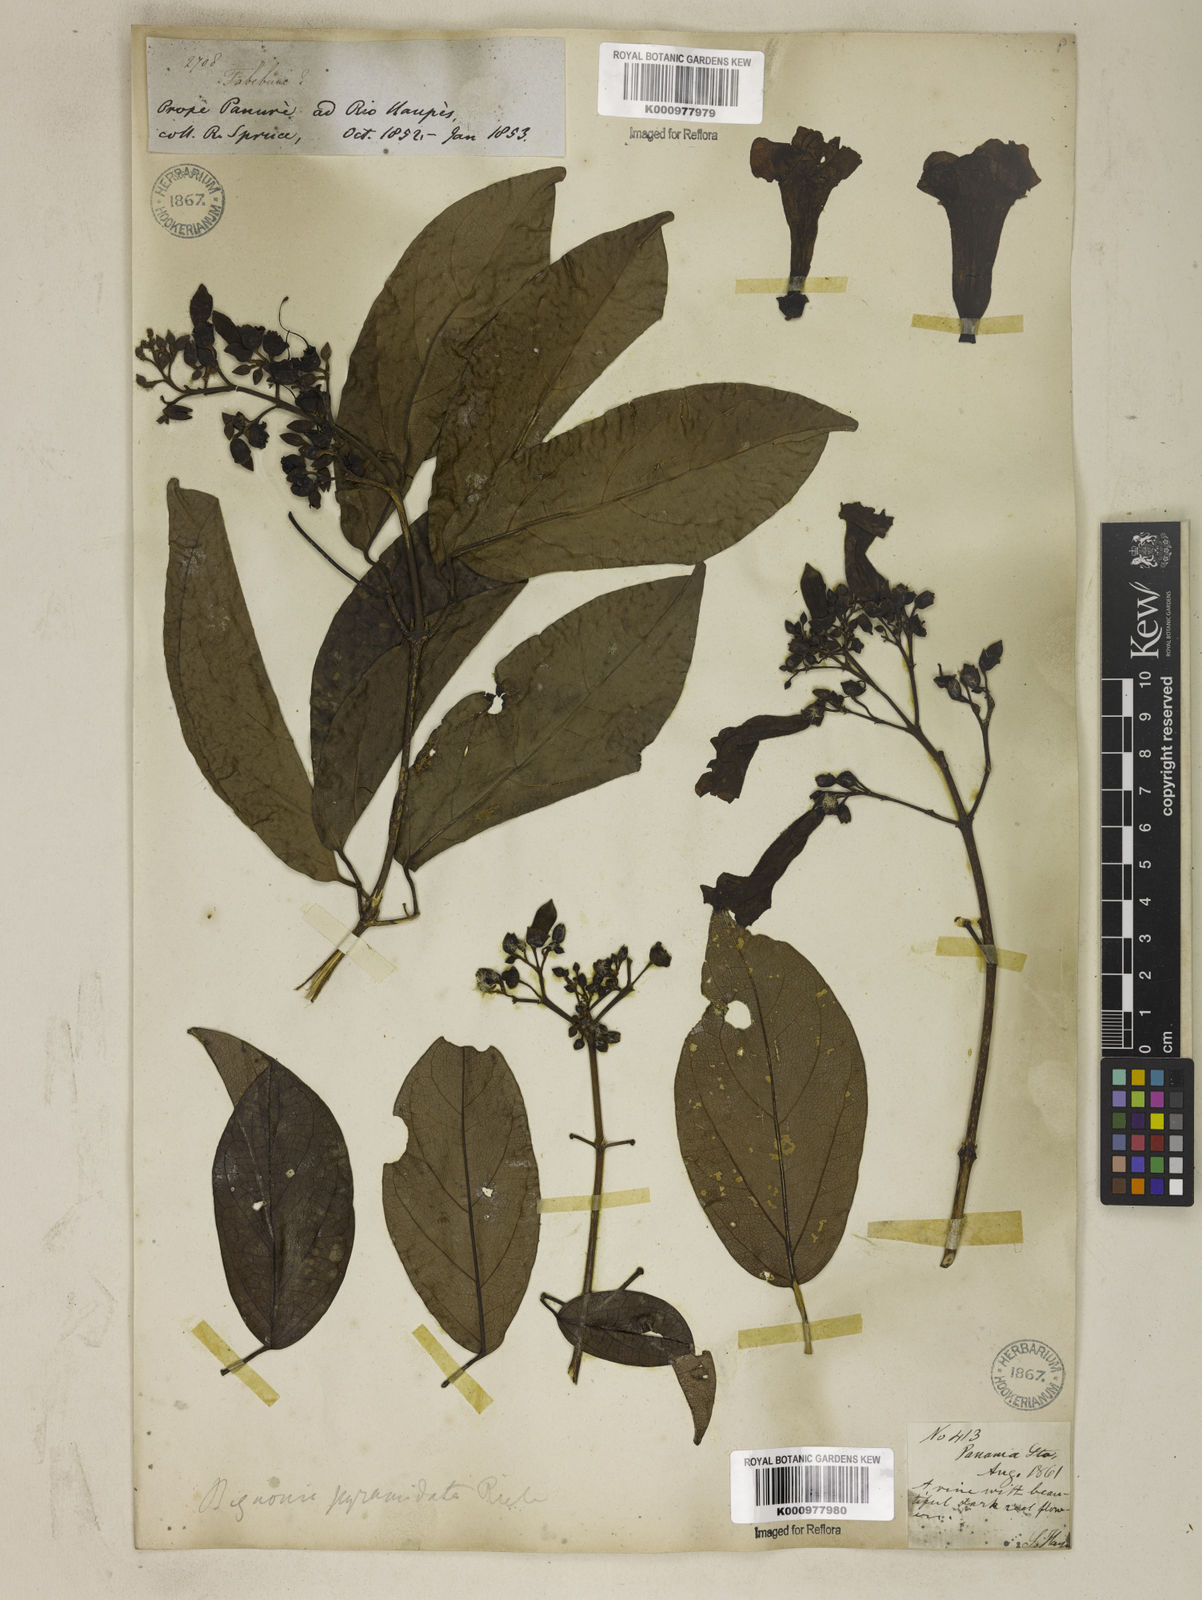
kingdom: Plantae
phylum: Tracheophyta
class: Magnoliopsida
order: Lamiales
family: Bignoniaceae
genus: Tanaecium
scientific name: Tanaecium pyramidatum
